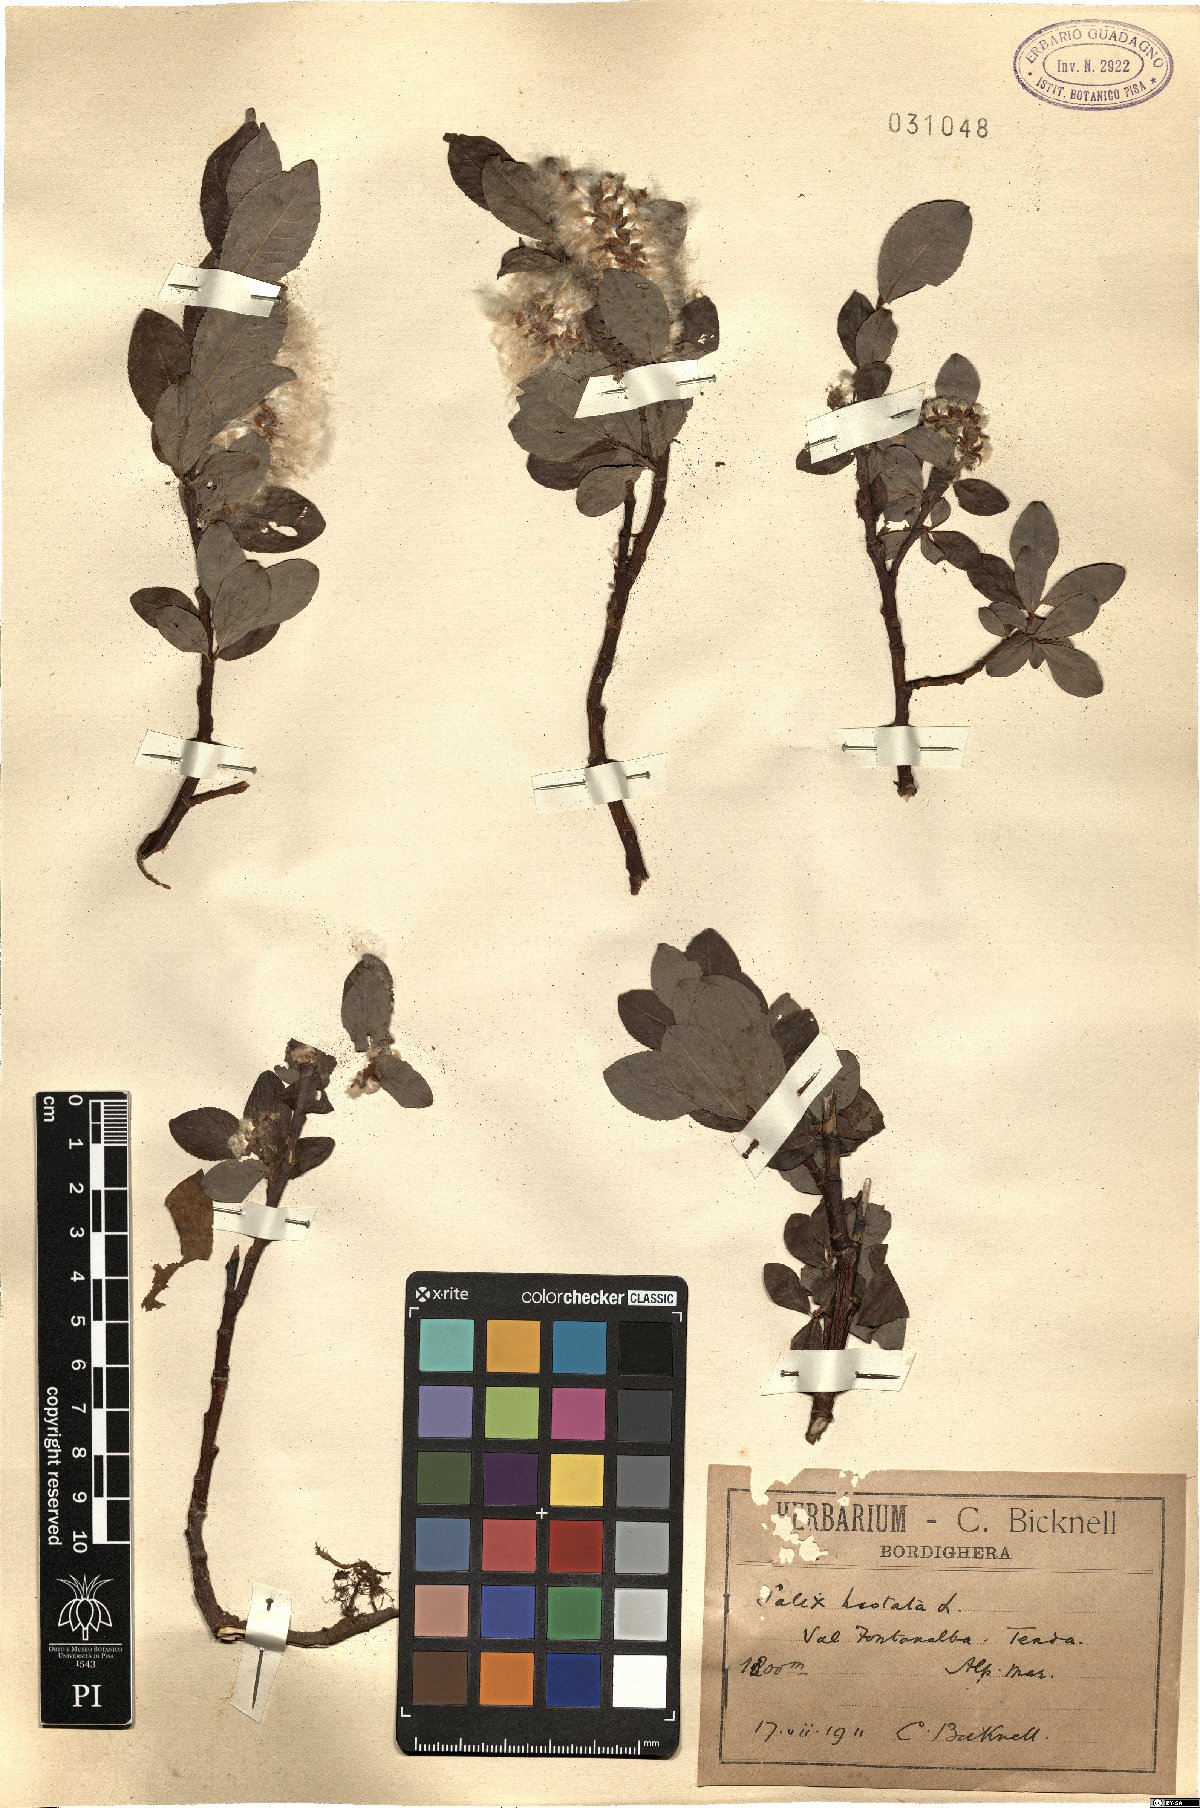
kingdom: Plantae
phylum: Tracheophyta
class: Magnoliopsida
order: Malpighiales
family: Salicaceae
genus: Salix
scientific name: Salix hastata
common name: Halberd willow
